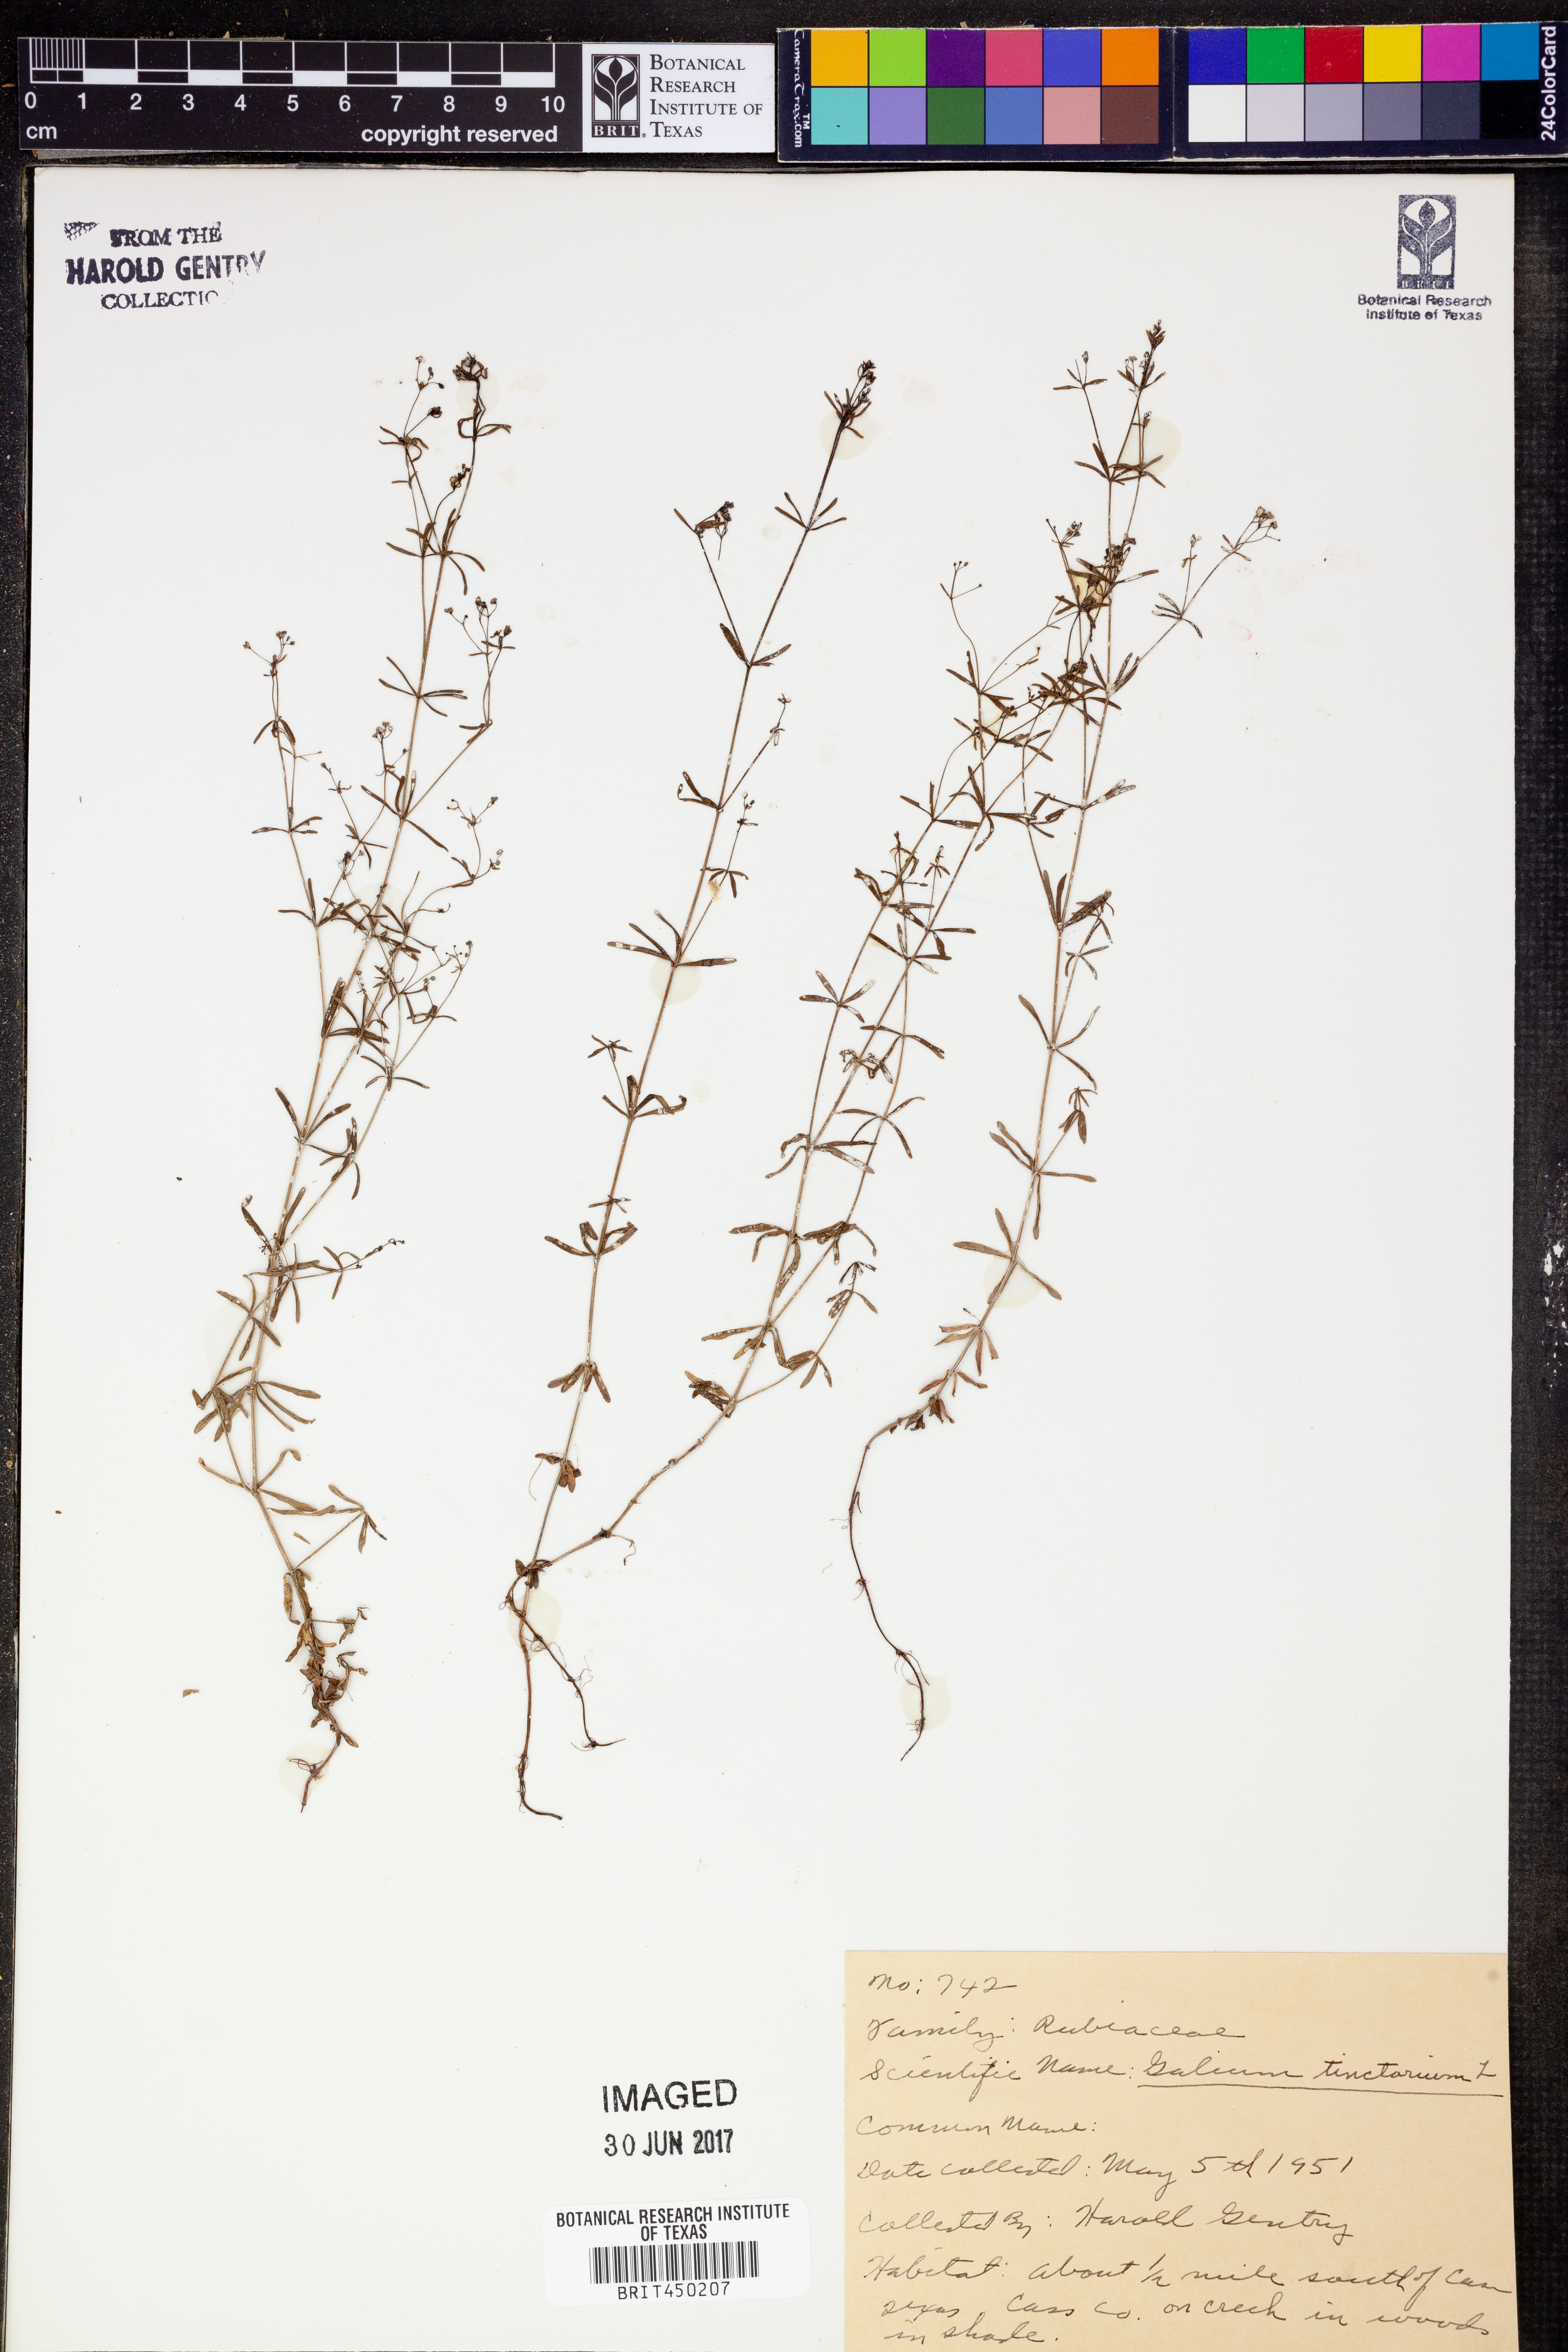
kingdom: Plantae
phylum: Tracheophyta
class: Magnoliopsida
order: Gentianales
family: Rubiaceae
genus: Asperula
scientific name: Asperula tinctoria
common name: Dyer's woodruff
